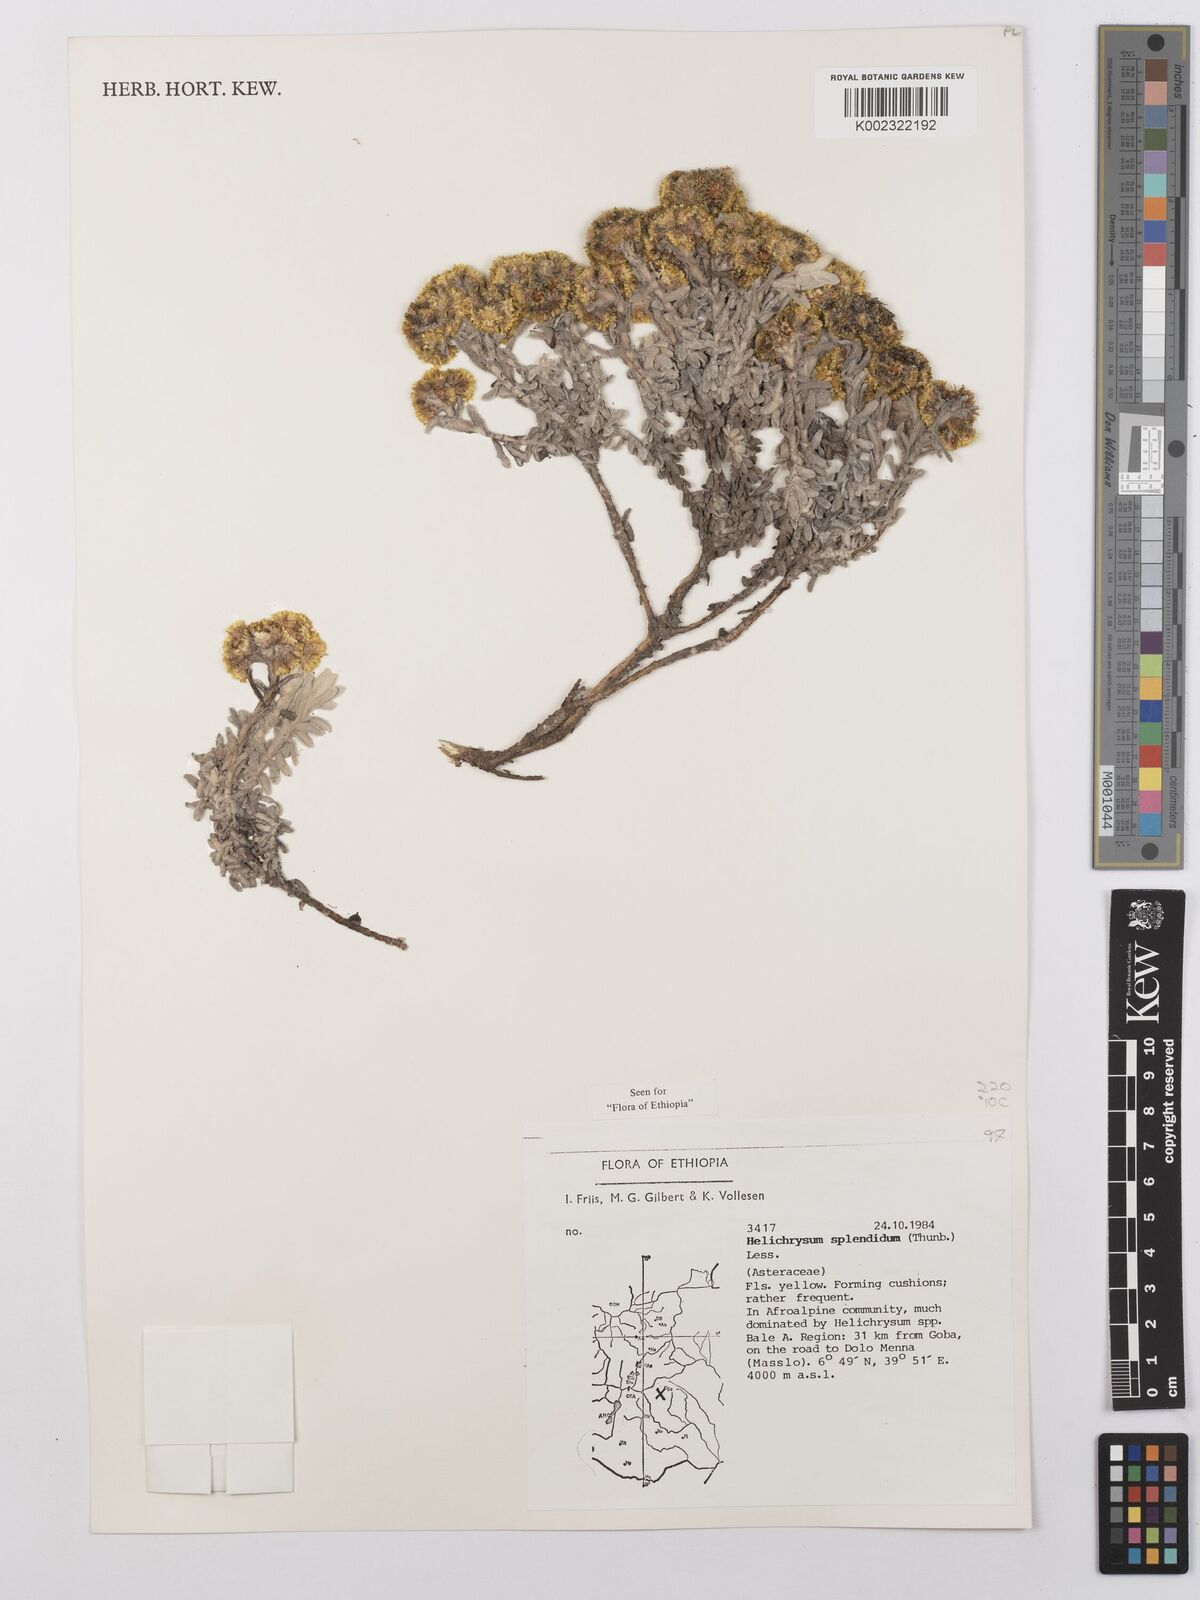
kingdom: Plantae
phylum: Tracheophyta
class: Magnoliopsida
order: Asterales
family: Asteraceae
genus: Helichrysum
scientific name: Helichrysum splendidum
